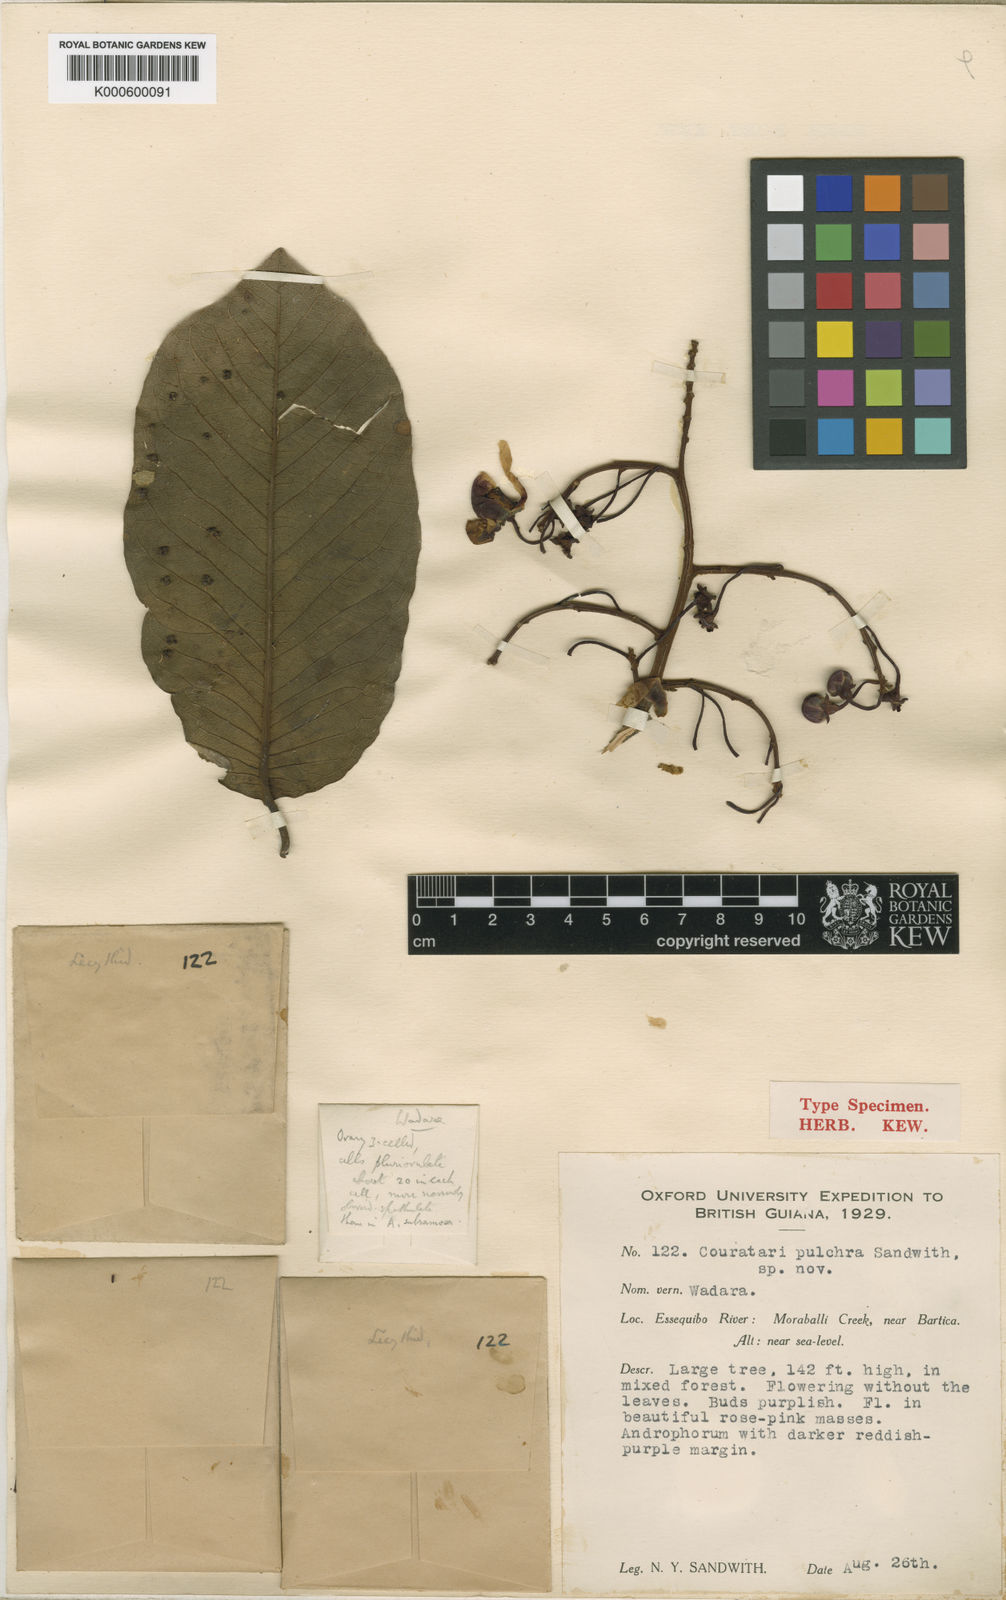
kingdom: Plantae
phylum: Tracheophyta
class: Magnoliopsida
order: Ericales
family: Lecythidaceae
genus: Couratari
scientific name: Couratari guianensis
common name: Fine-leaf wadara
